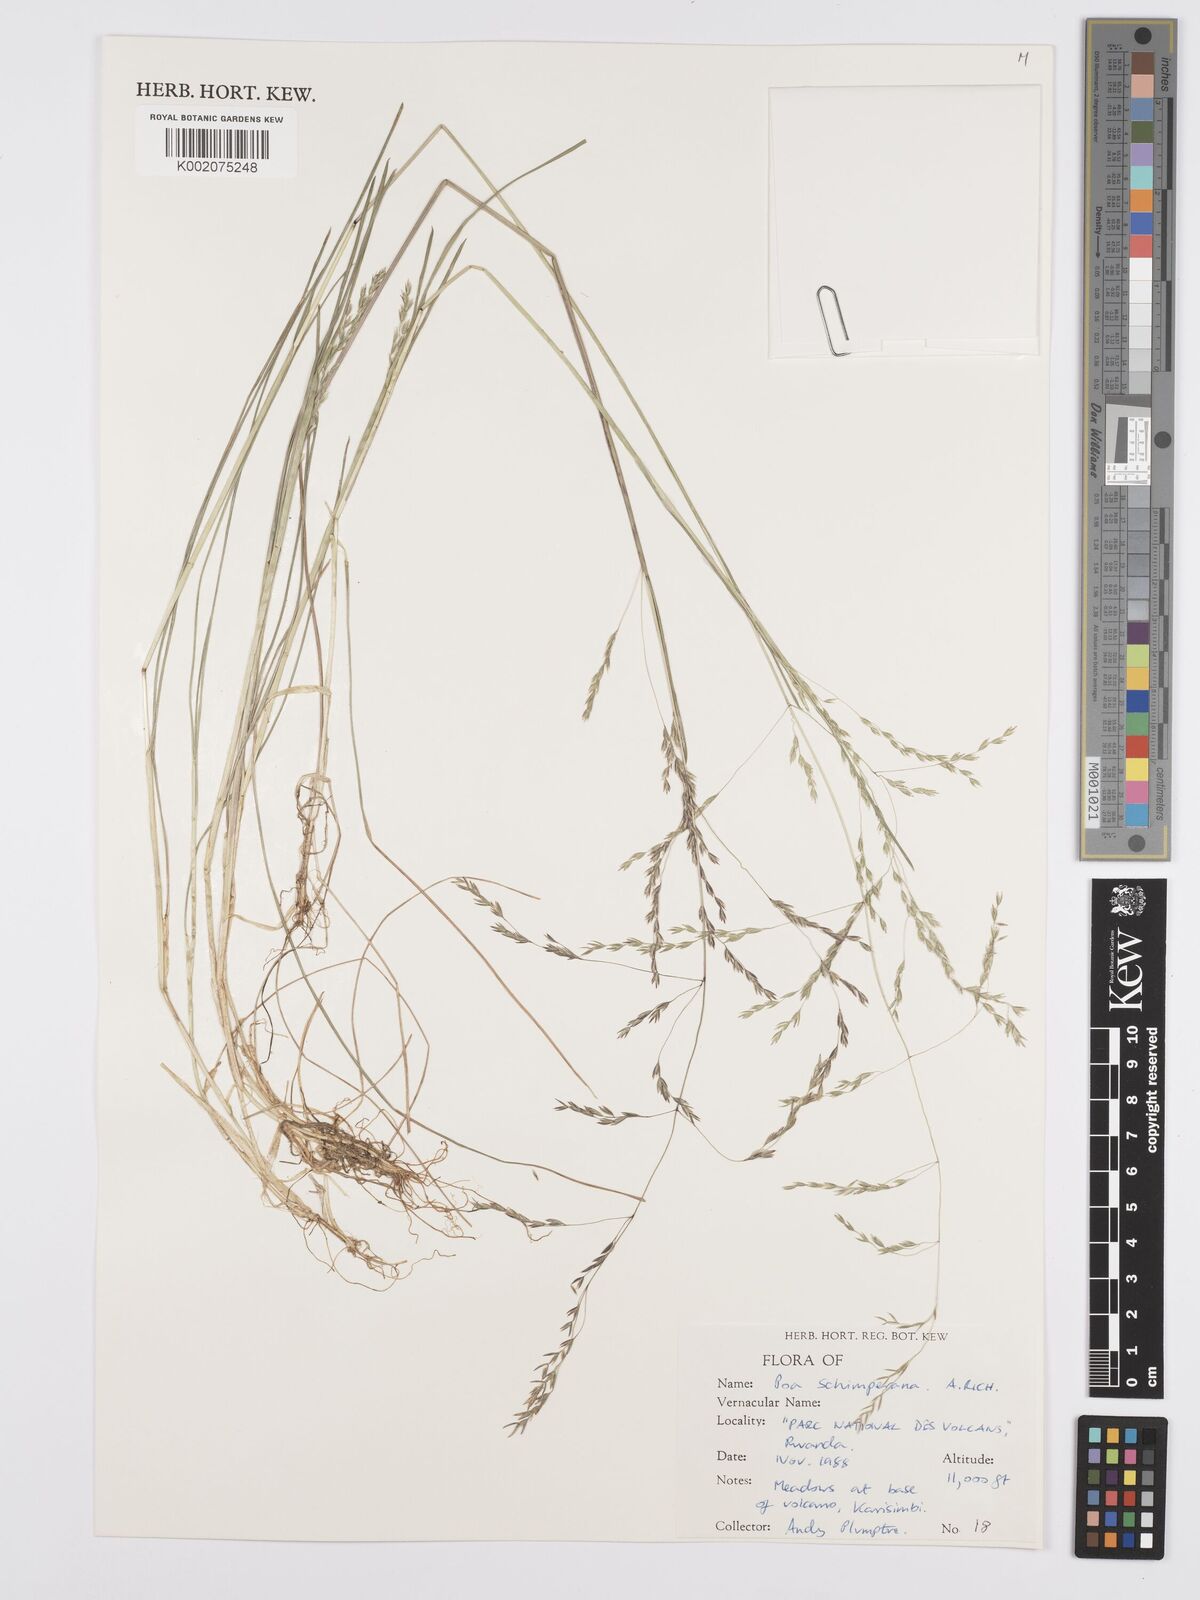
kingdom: Plantae
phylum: Tracheophyta
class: Liliopsida
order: Poales
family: Poaceae
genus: Poa
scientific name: Poa schimperiana
